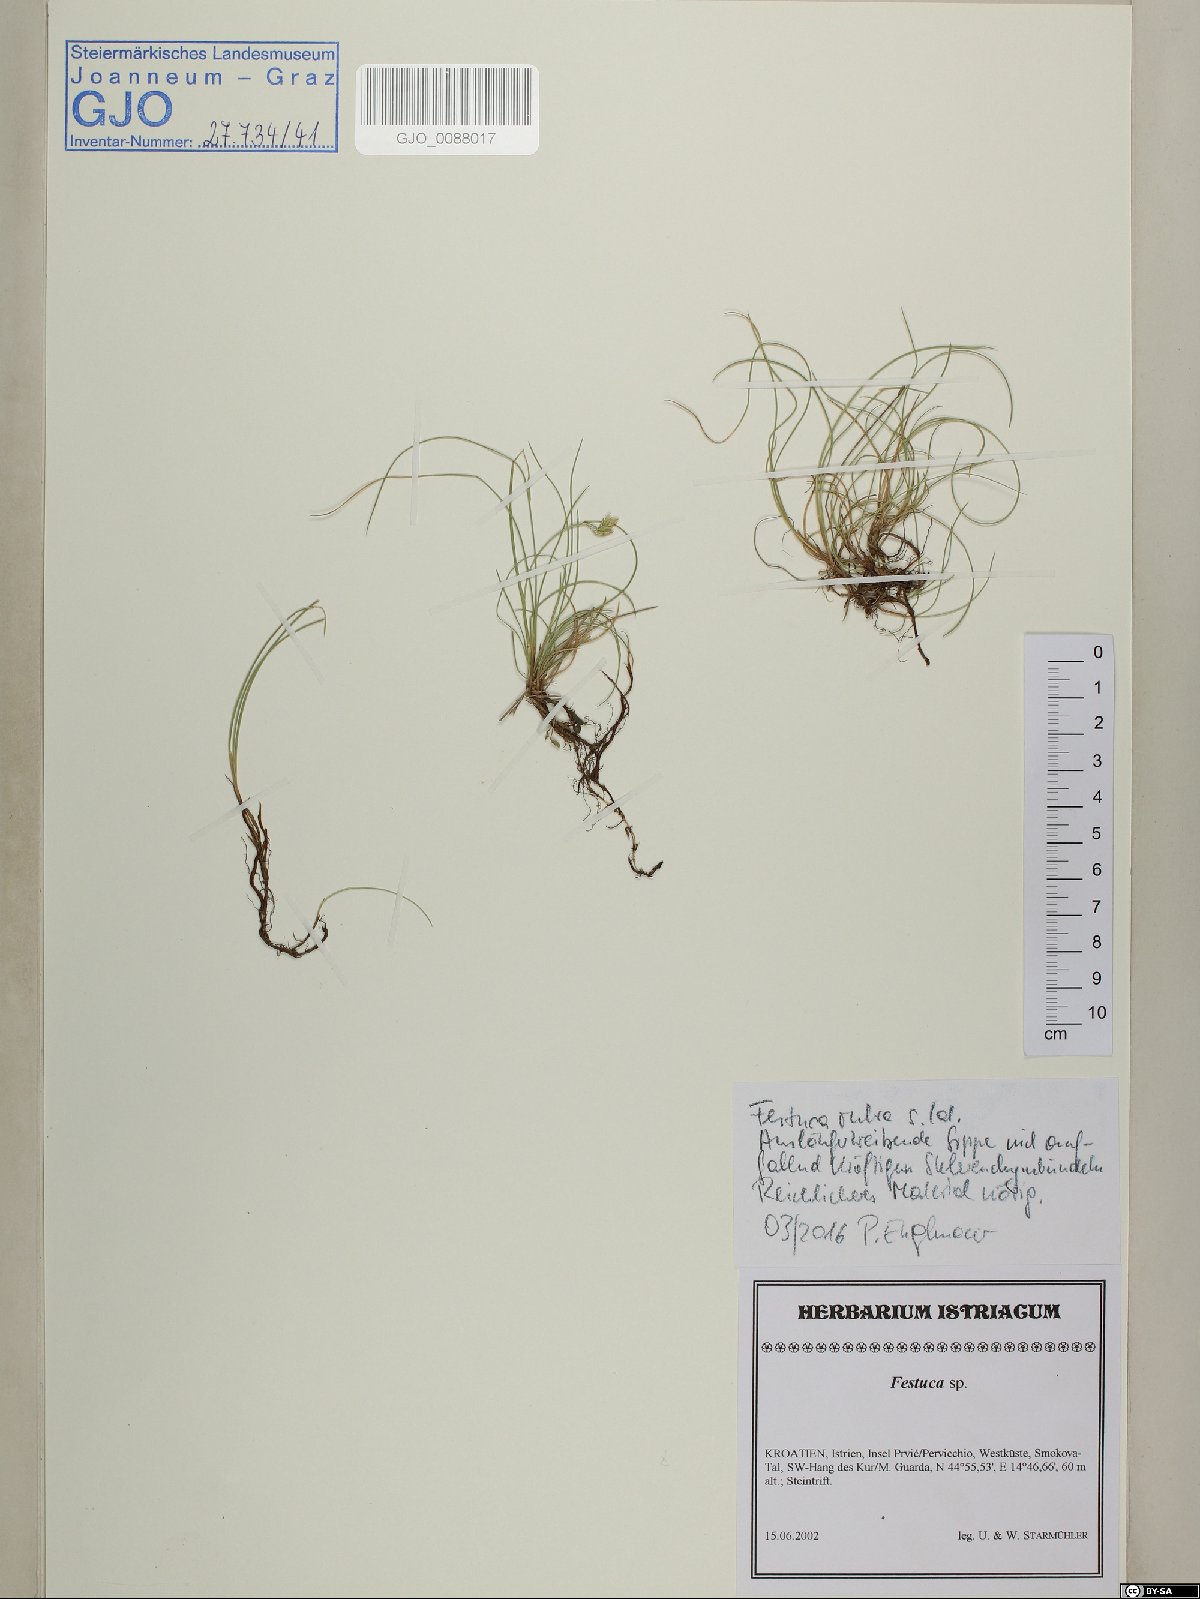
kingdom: Plantae
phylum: Tracheophyta
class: Liliopsida
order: Poales
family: Poaceae
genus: Festuca
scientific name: Festuca ovina
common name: Sheep fescue
